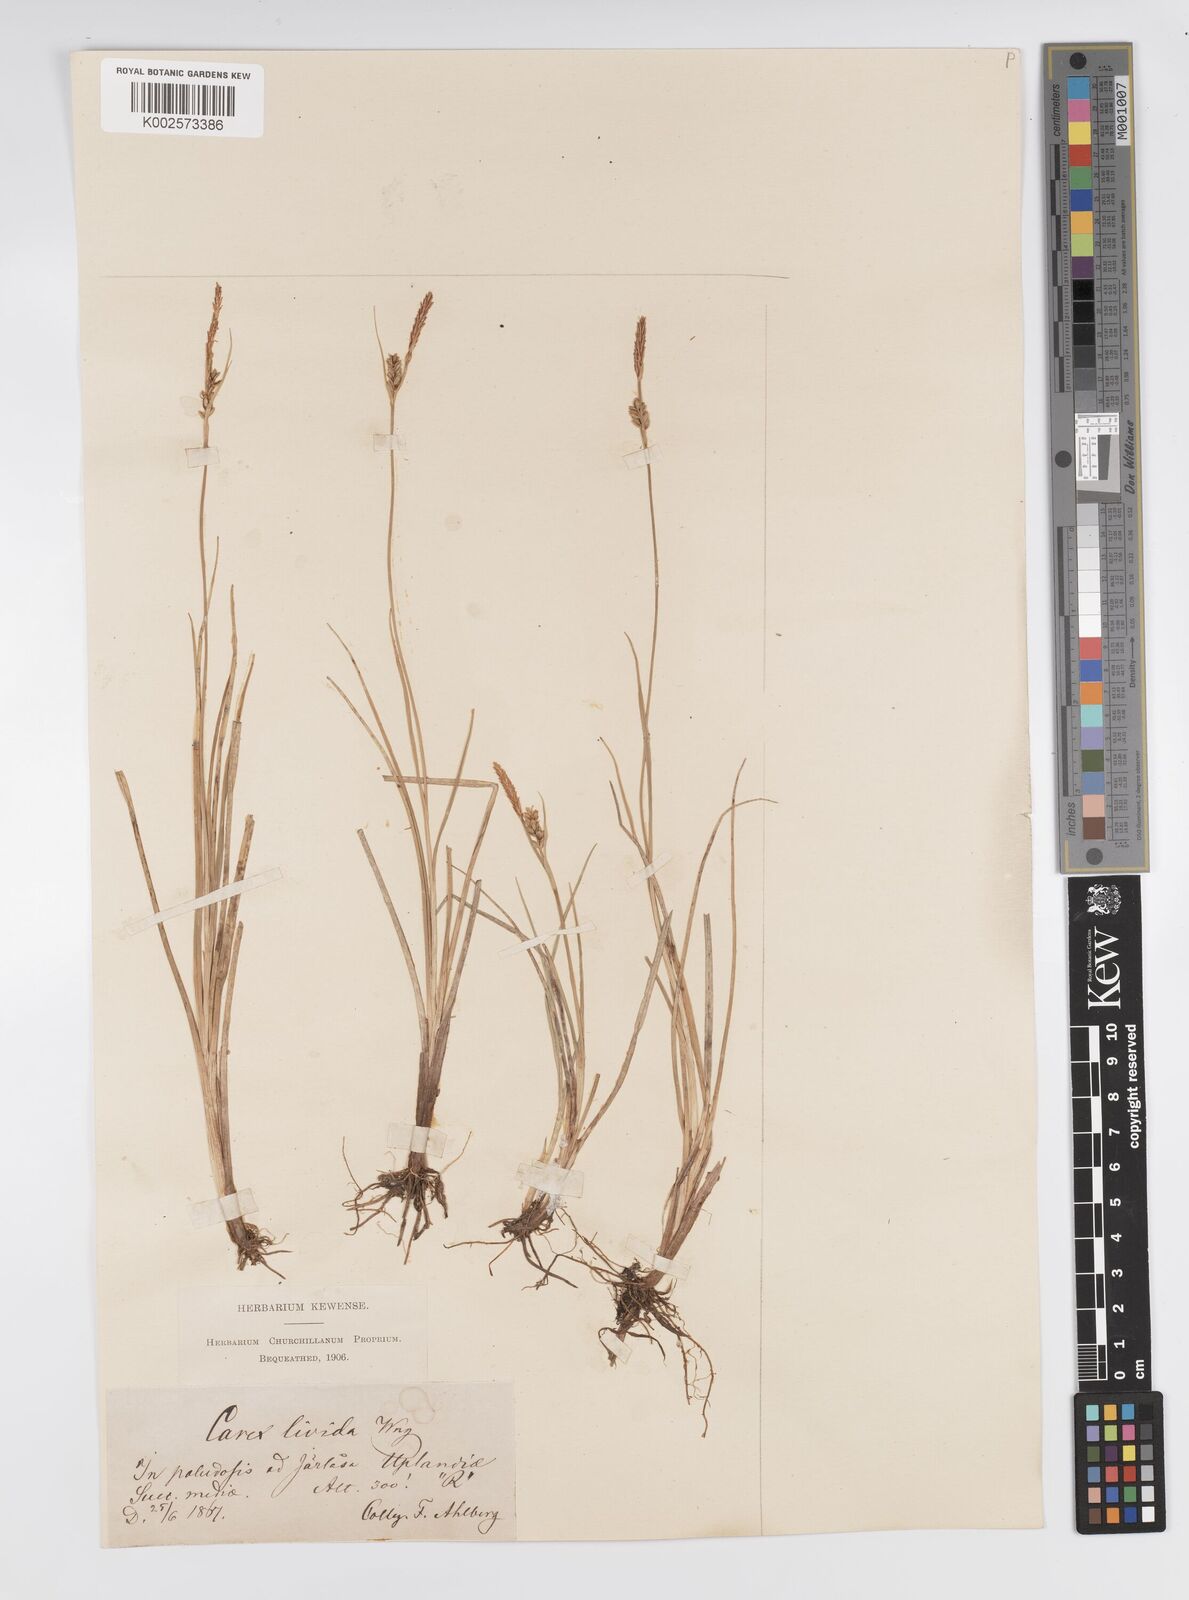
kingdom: Plantae
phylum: Tracheophyta
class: Liliopsida
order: Poales
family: Cyperaceae
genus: Carex
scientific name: Carex livida
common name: Livid sedge
